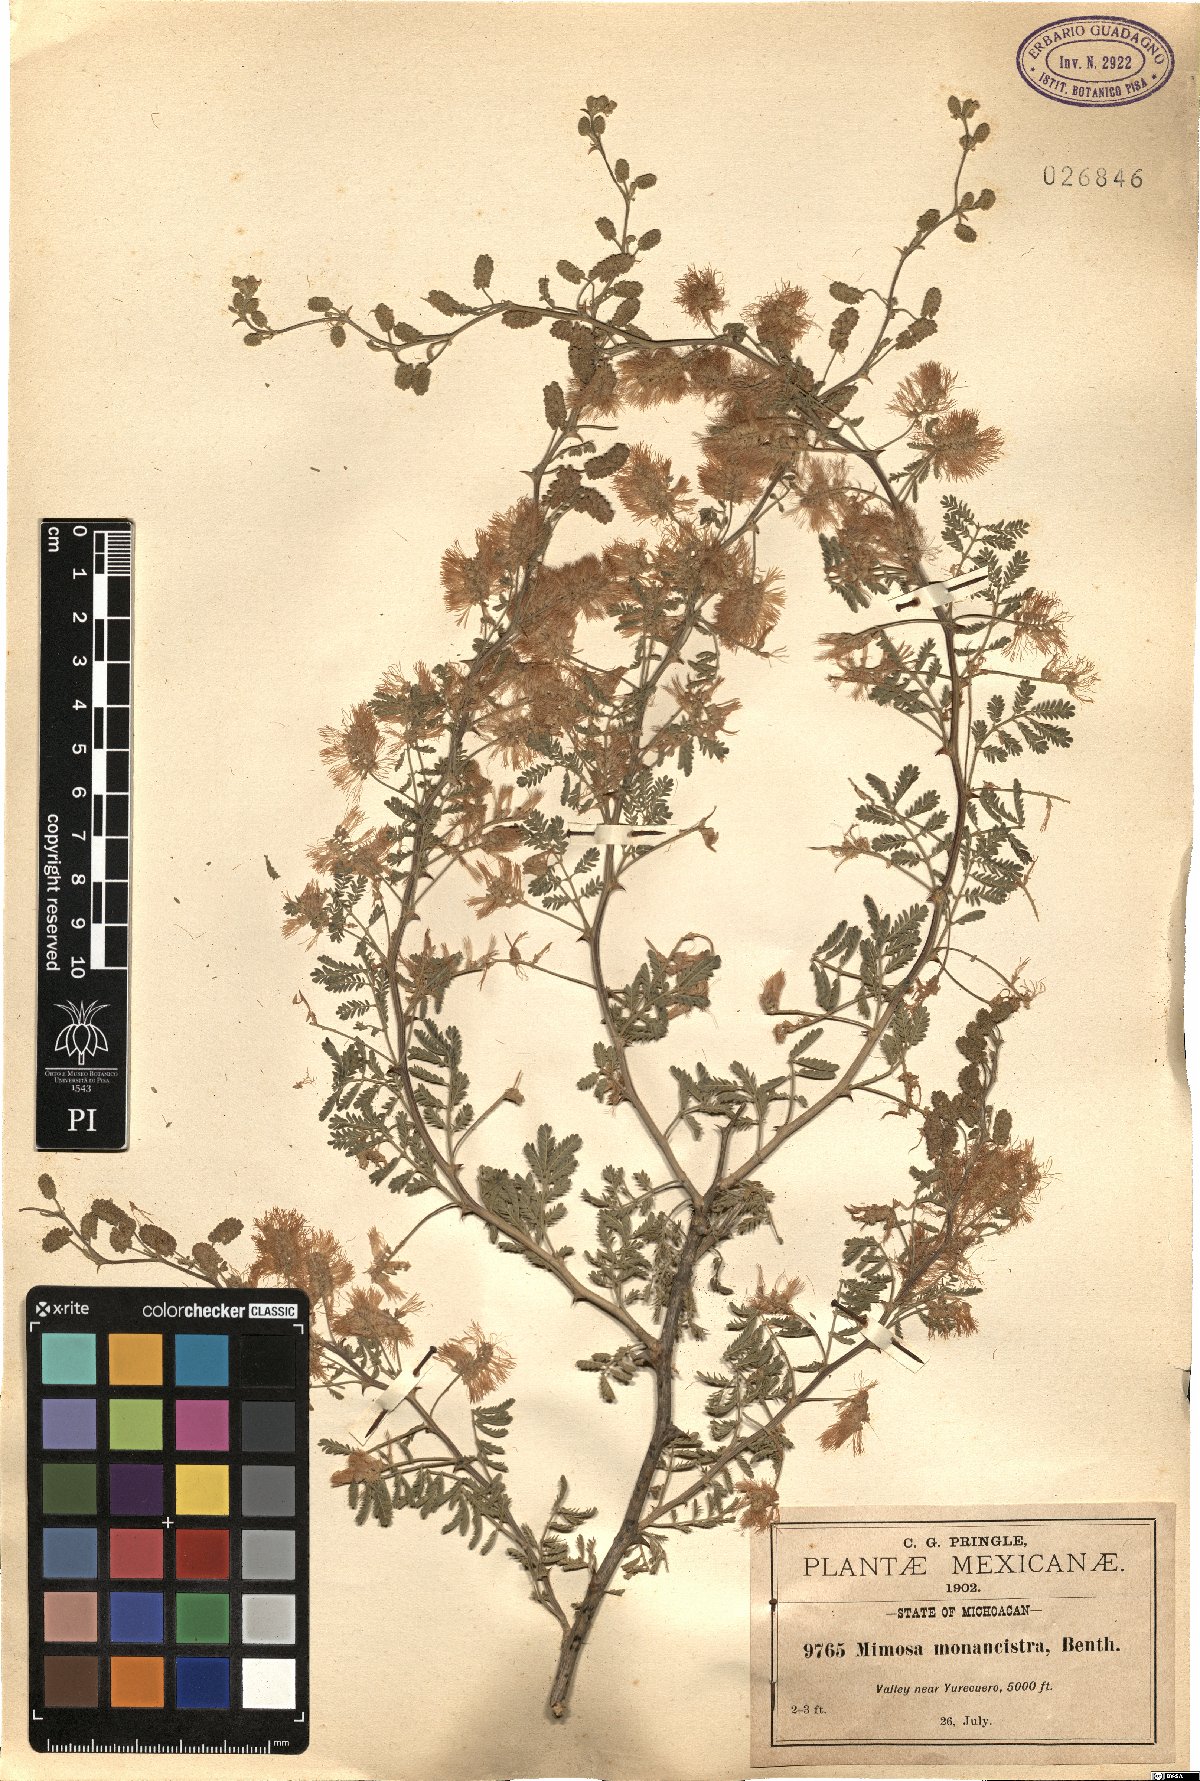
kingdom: Plantae
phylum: Tracheophyta
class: Magnoliopsida
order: Fabales
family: Fabaceae
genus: Mimosa
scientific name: Mimosa monancistra
